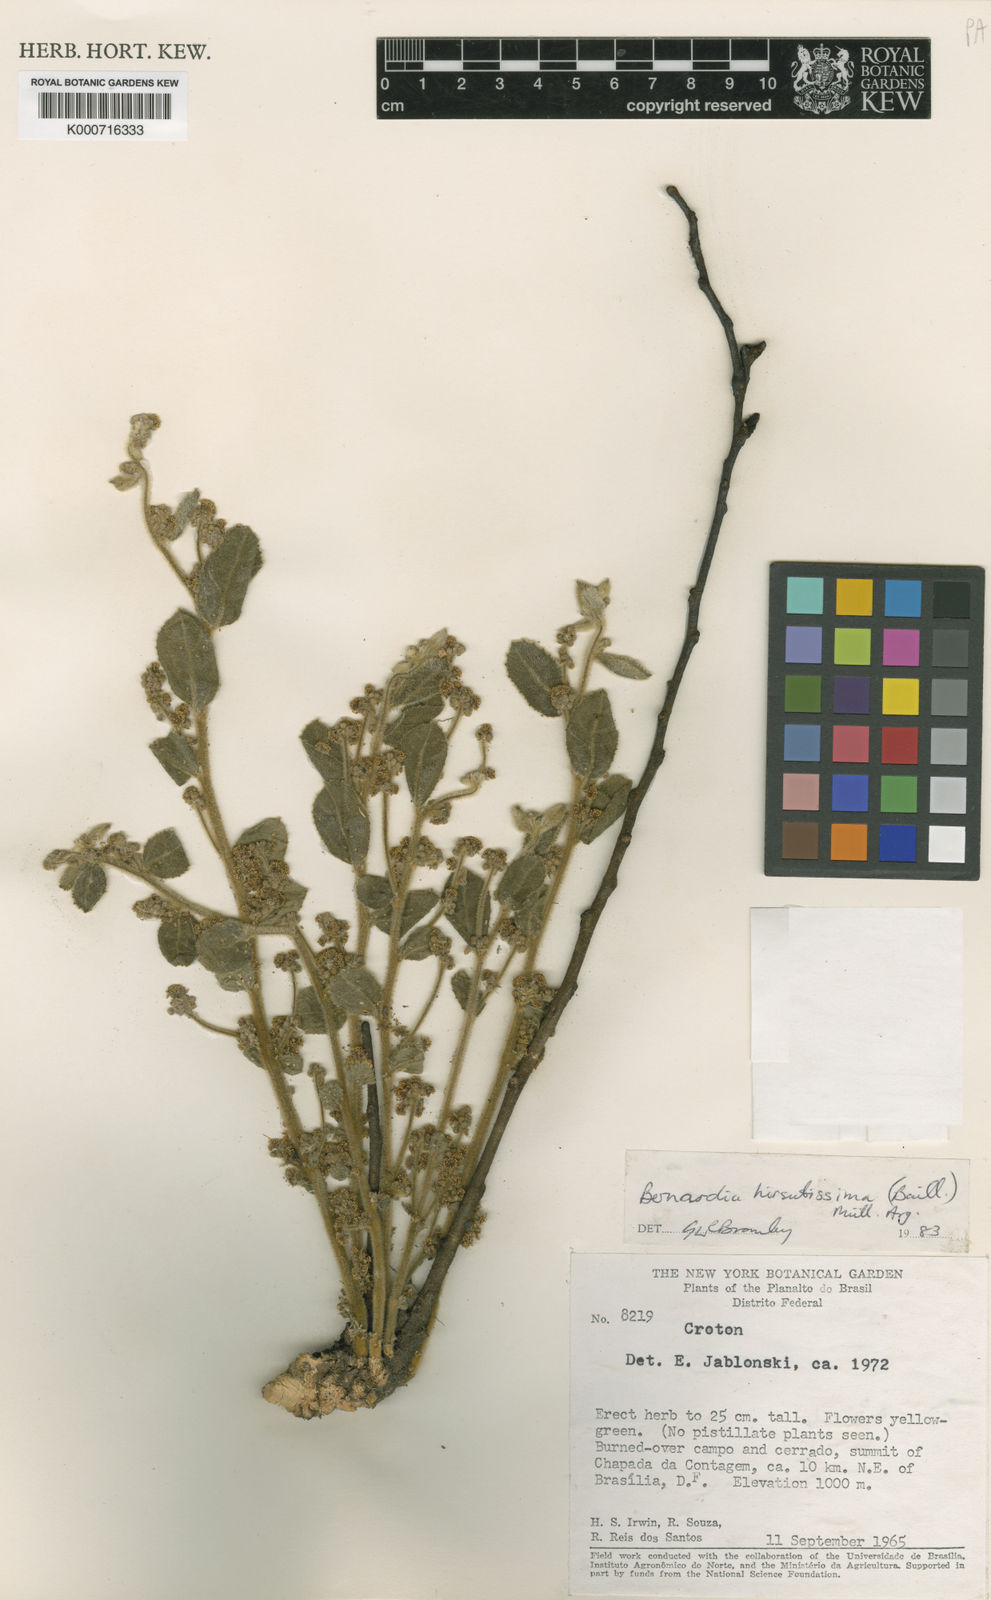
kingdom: Plantae
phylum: Tracheophyta
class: Magnoliopsida
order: Malpighiales
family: Euphorbiaceae
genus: Bernardia
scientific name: Bernardia
